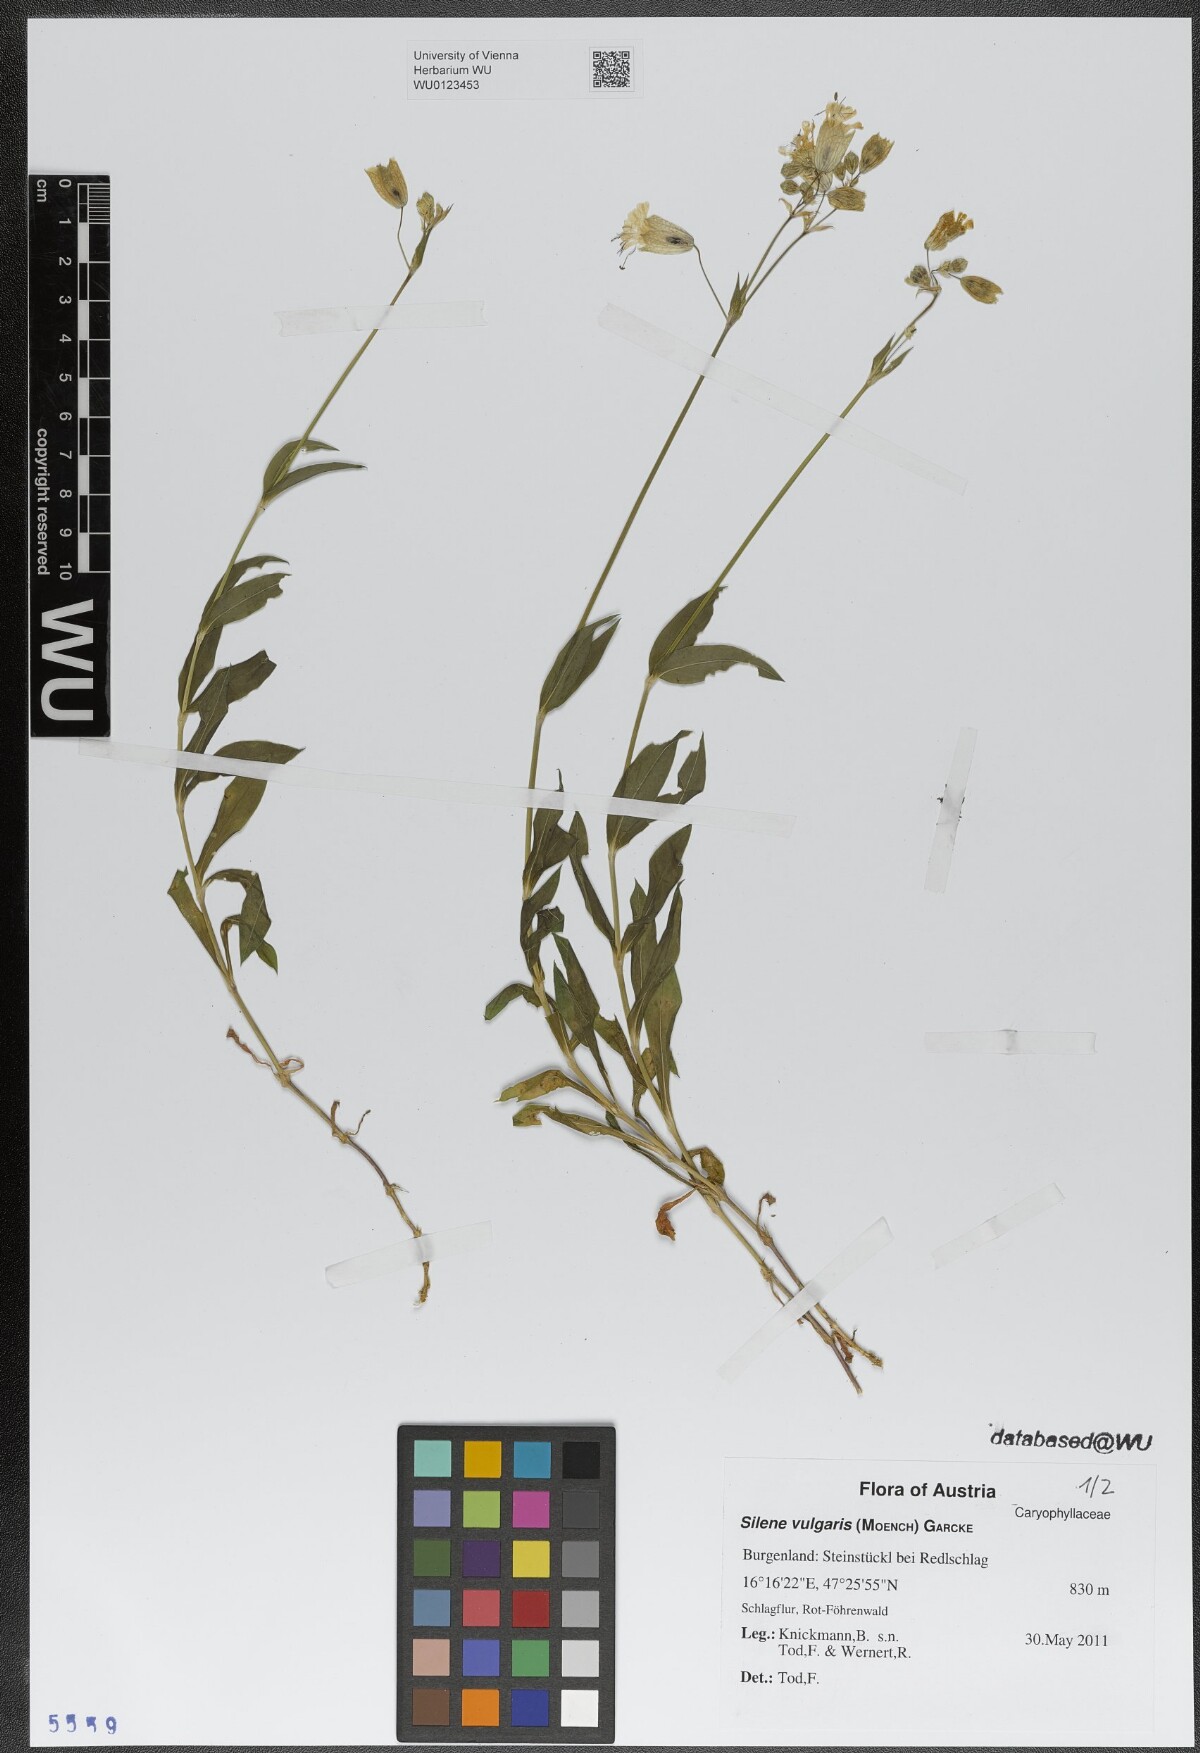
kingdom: Plantae
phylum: Tracheophyta
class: Magnoliopsida
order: Caryophyllales
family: Caryophyllaceae
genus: Silene
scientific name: Silene vulgaris
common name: Bladder campion
